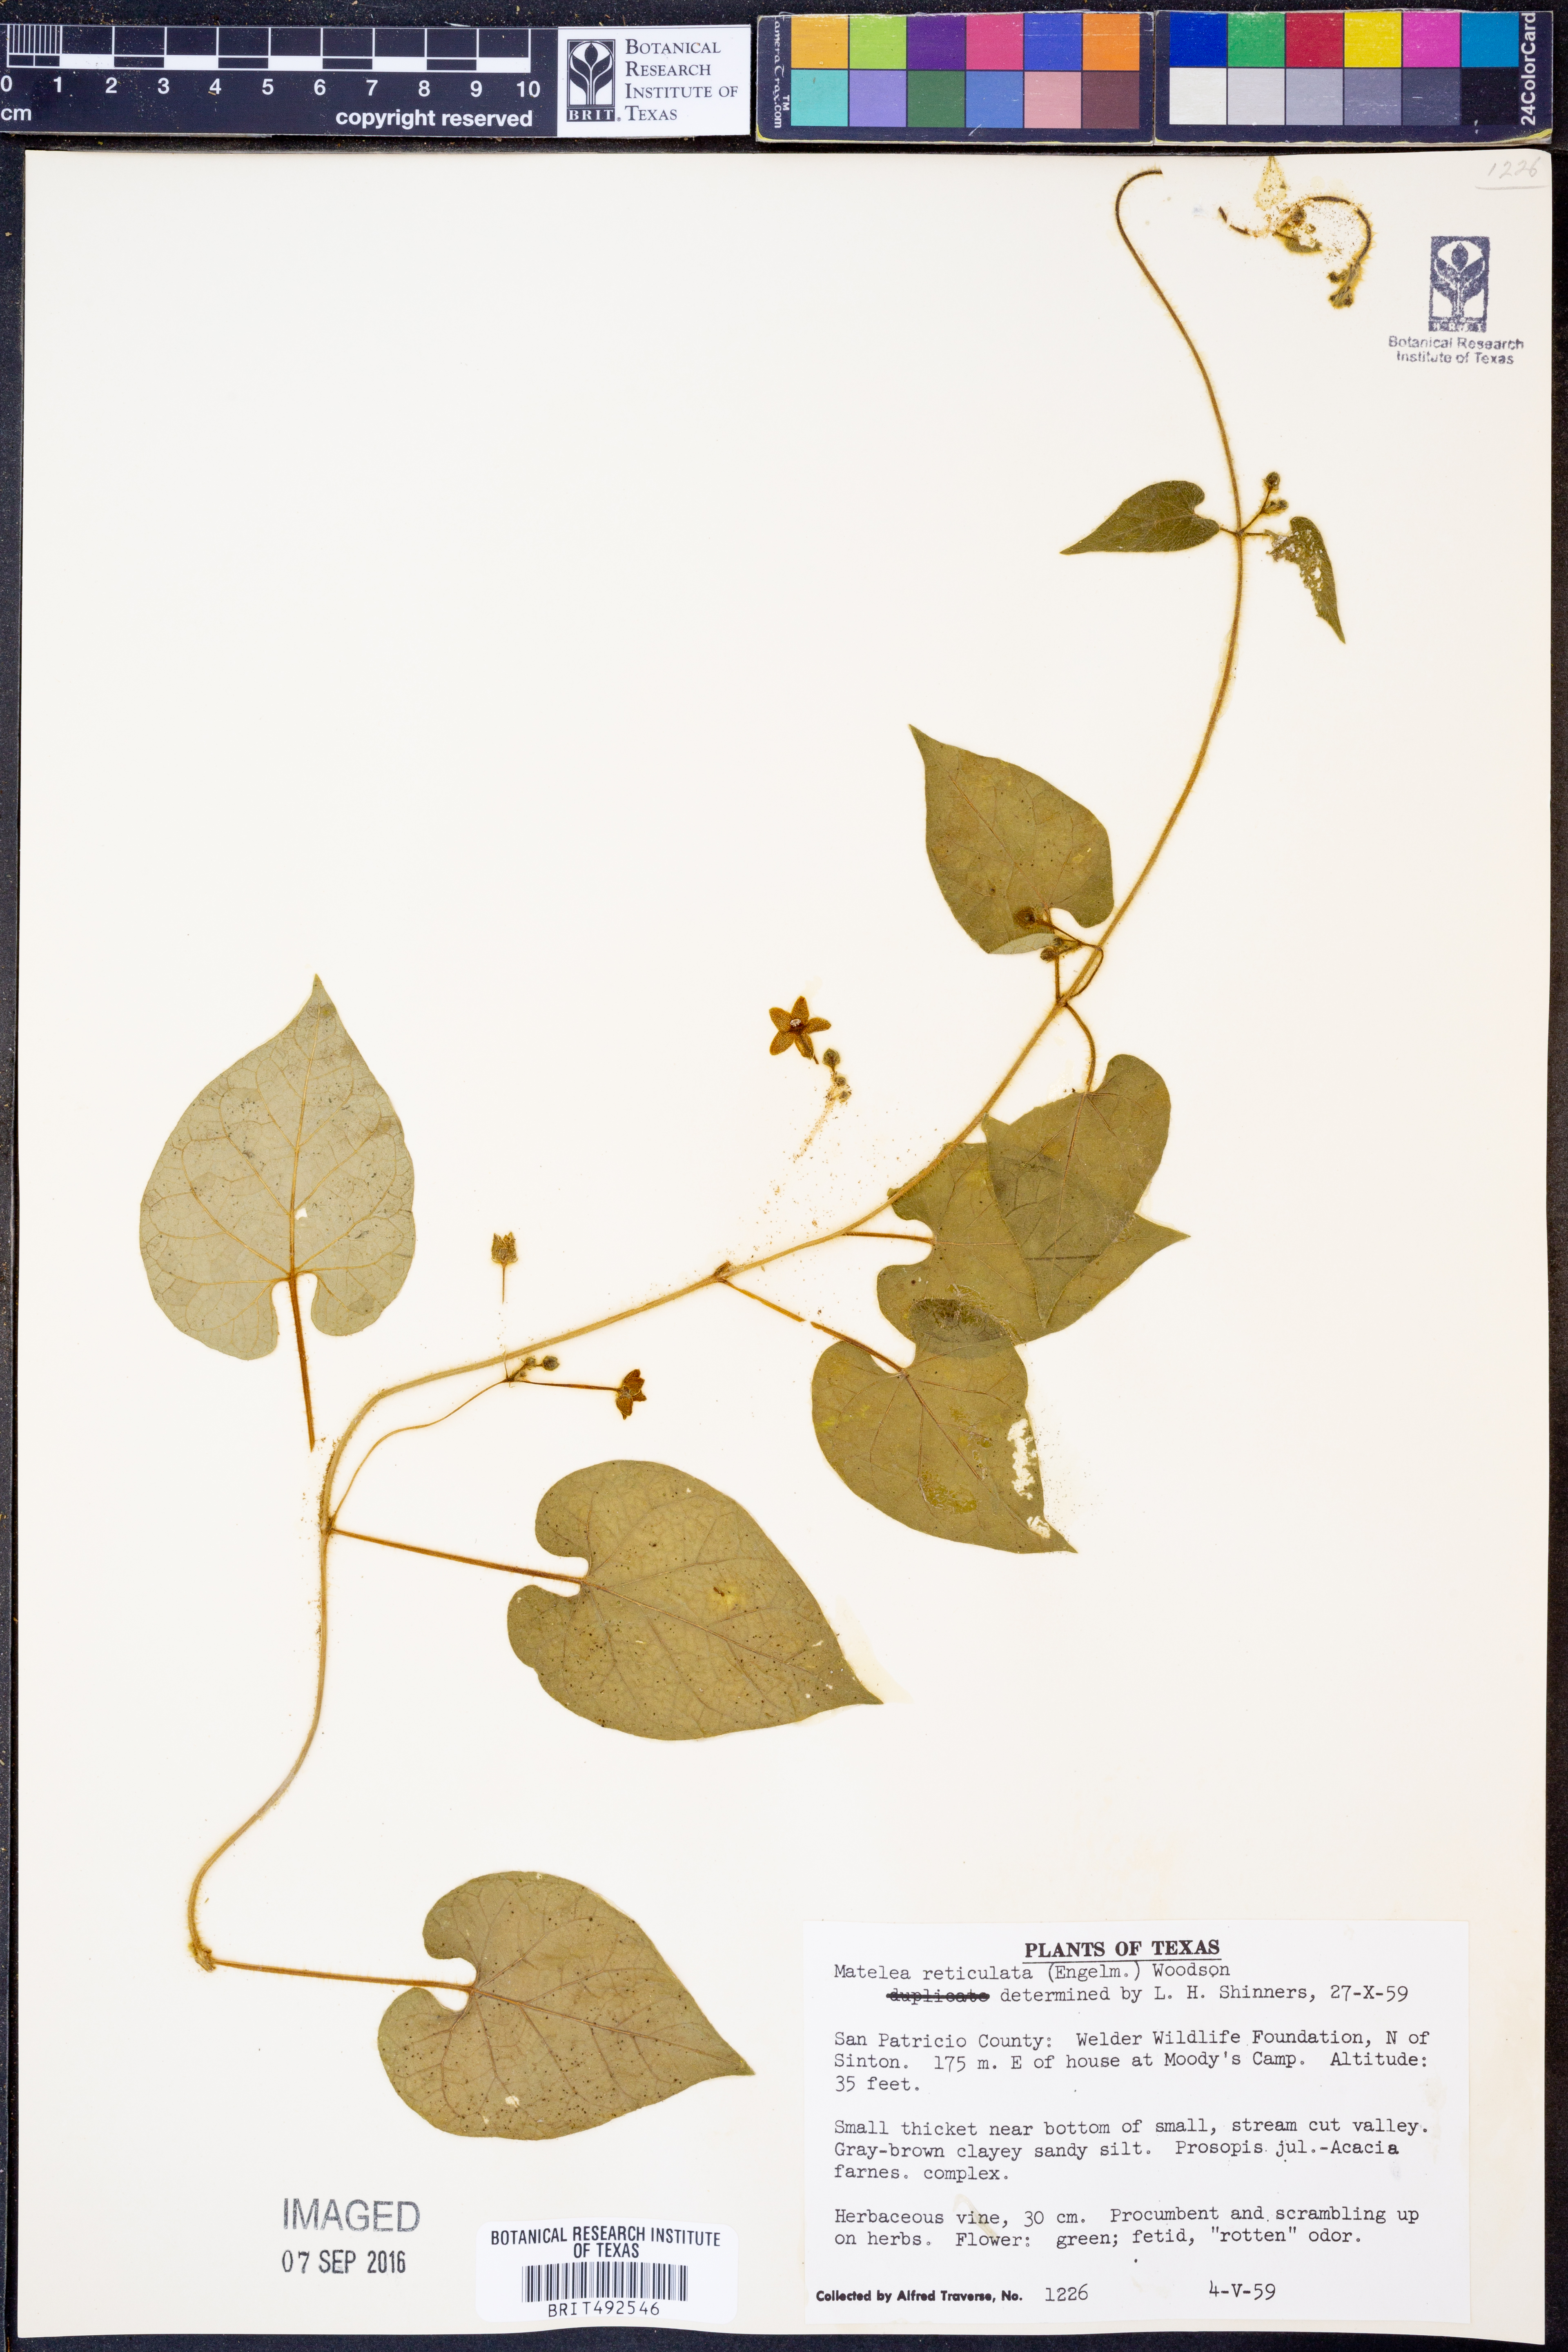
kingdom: Plantae
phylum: Tracheophyta
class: Magnoliopsida
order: Gentianales
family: Apocynaceae
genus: Dictyanthus
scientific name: Dictyanthus reticulatus
